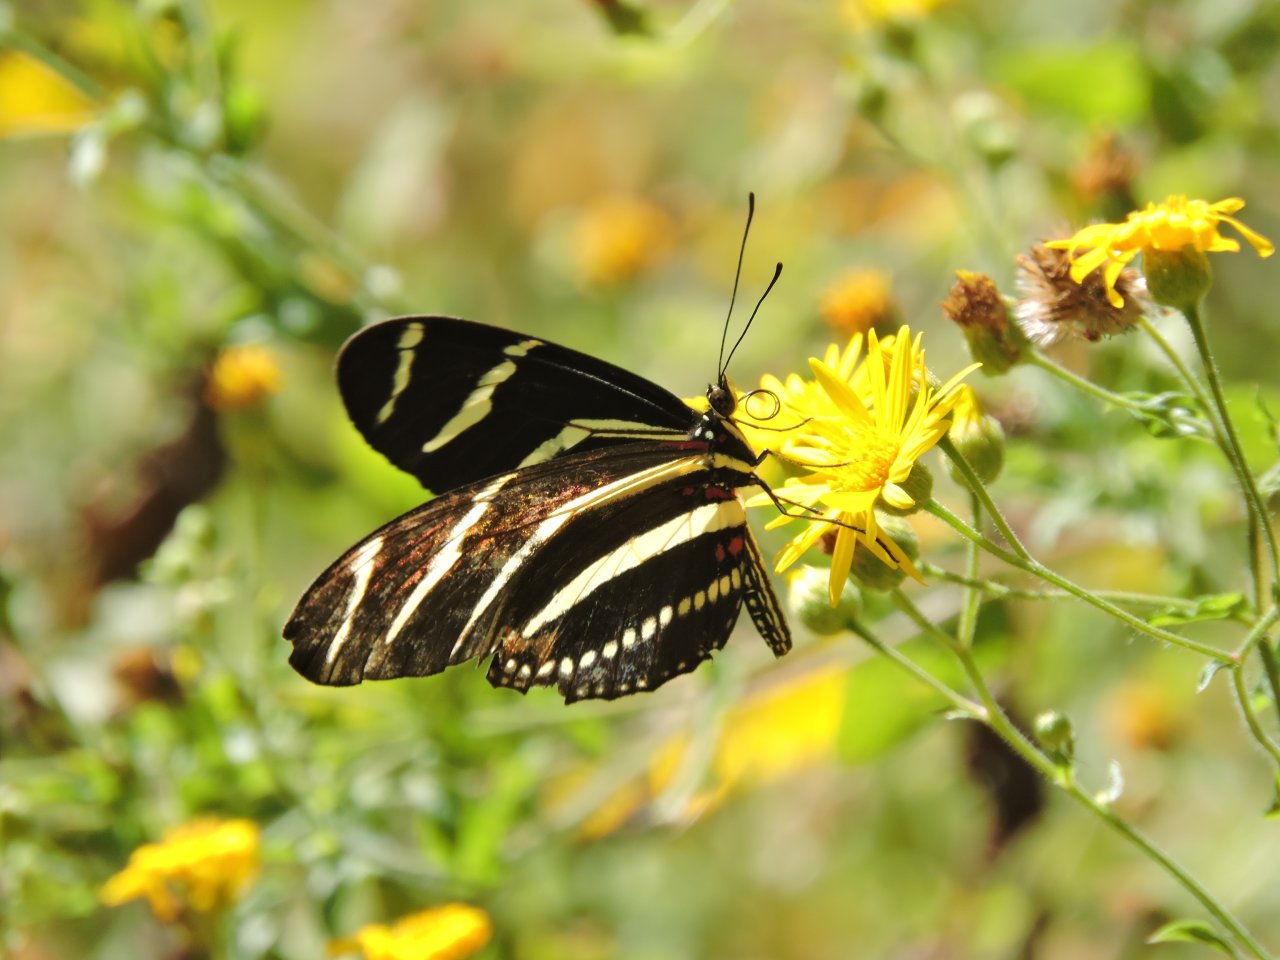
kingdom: Animalia
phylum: Arthropoda
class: Insecta
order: Lepidoptera
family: Nymphalidae
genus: Heliconius
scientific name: Heliconius charithonia
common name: Zebra Longwing
